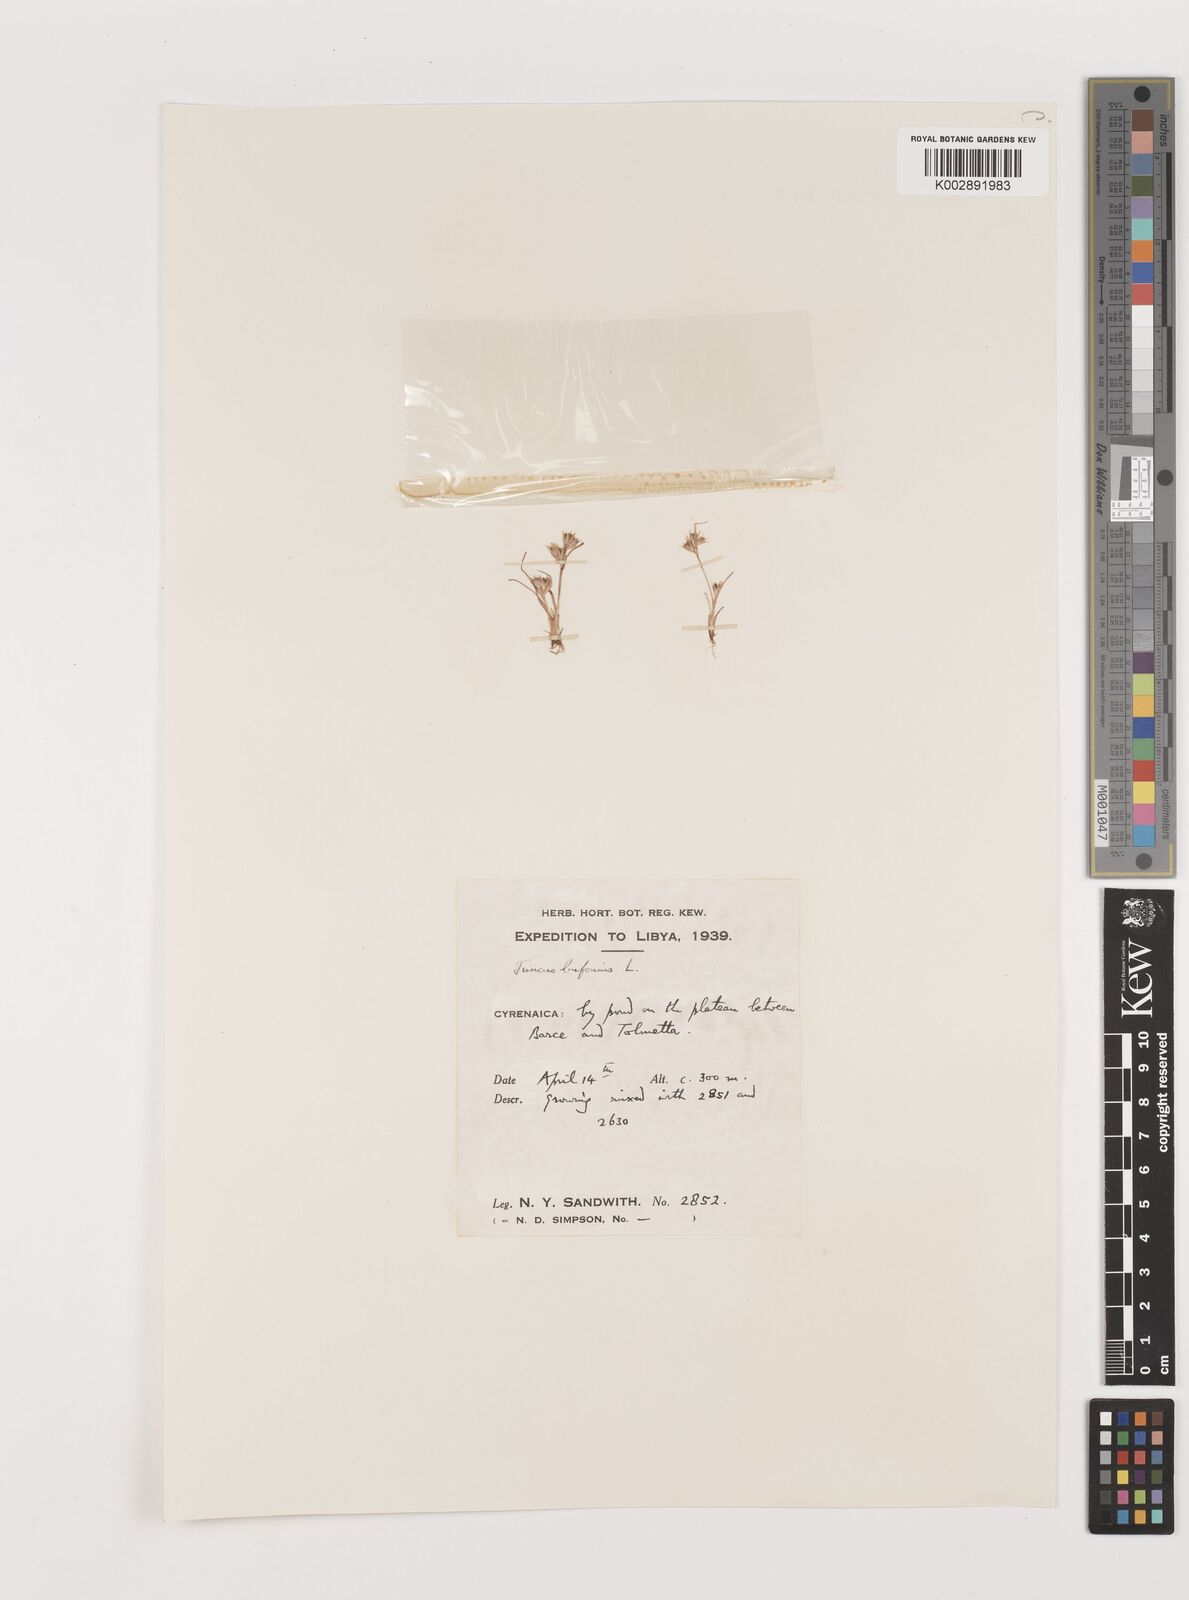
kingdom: Plantae
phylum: Tracheophyta
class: Liliopsida
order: Poales
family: Juncaceae
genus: Juncus
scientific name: Juncus bufonius
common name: Toad rush
